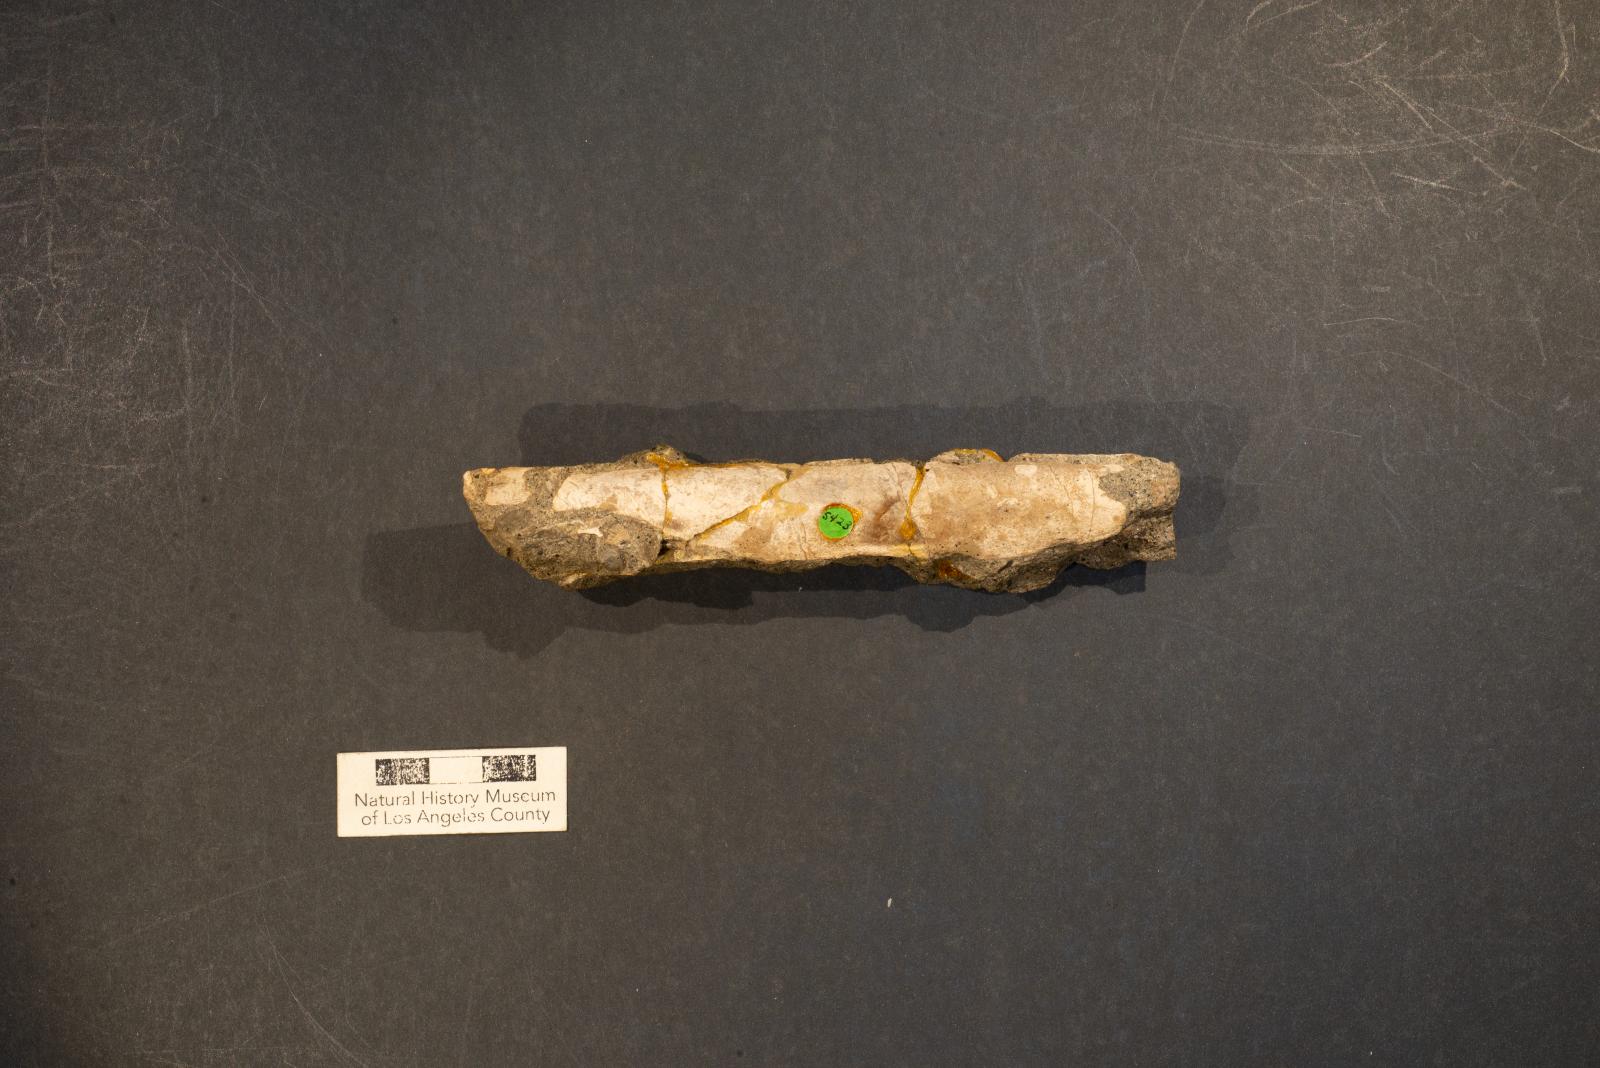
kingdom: Animalia
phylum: Mollusca
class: Bivalvia
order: Adapedonta
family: Solenidae
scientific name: Solenidae
